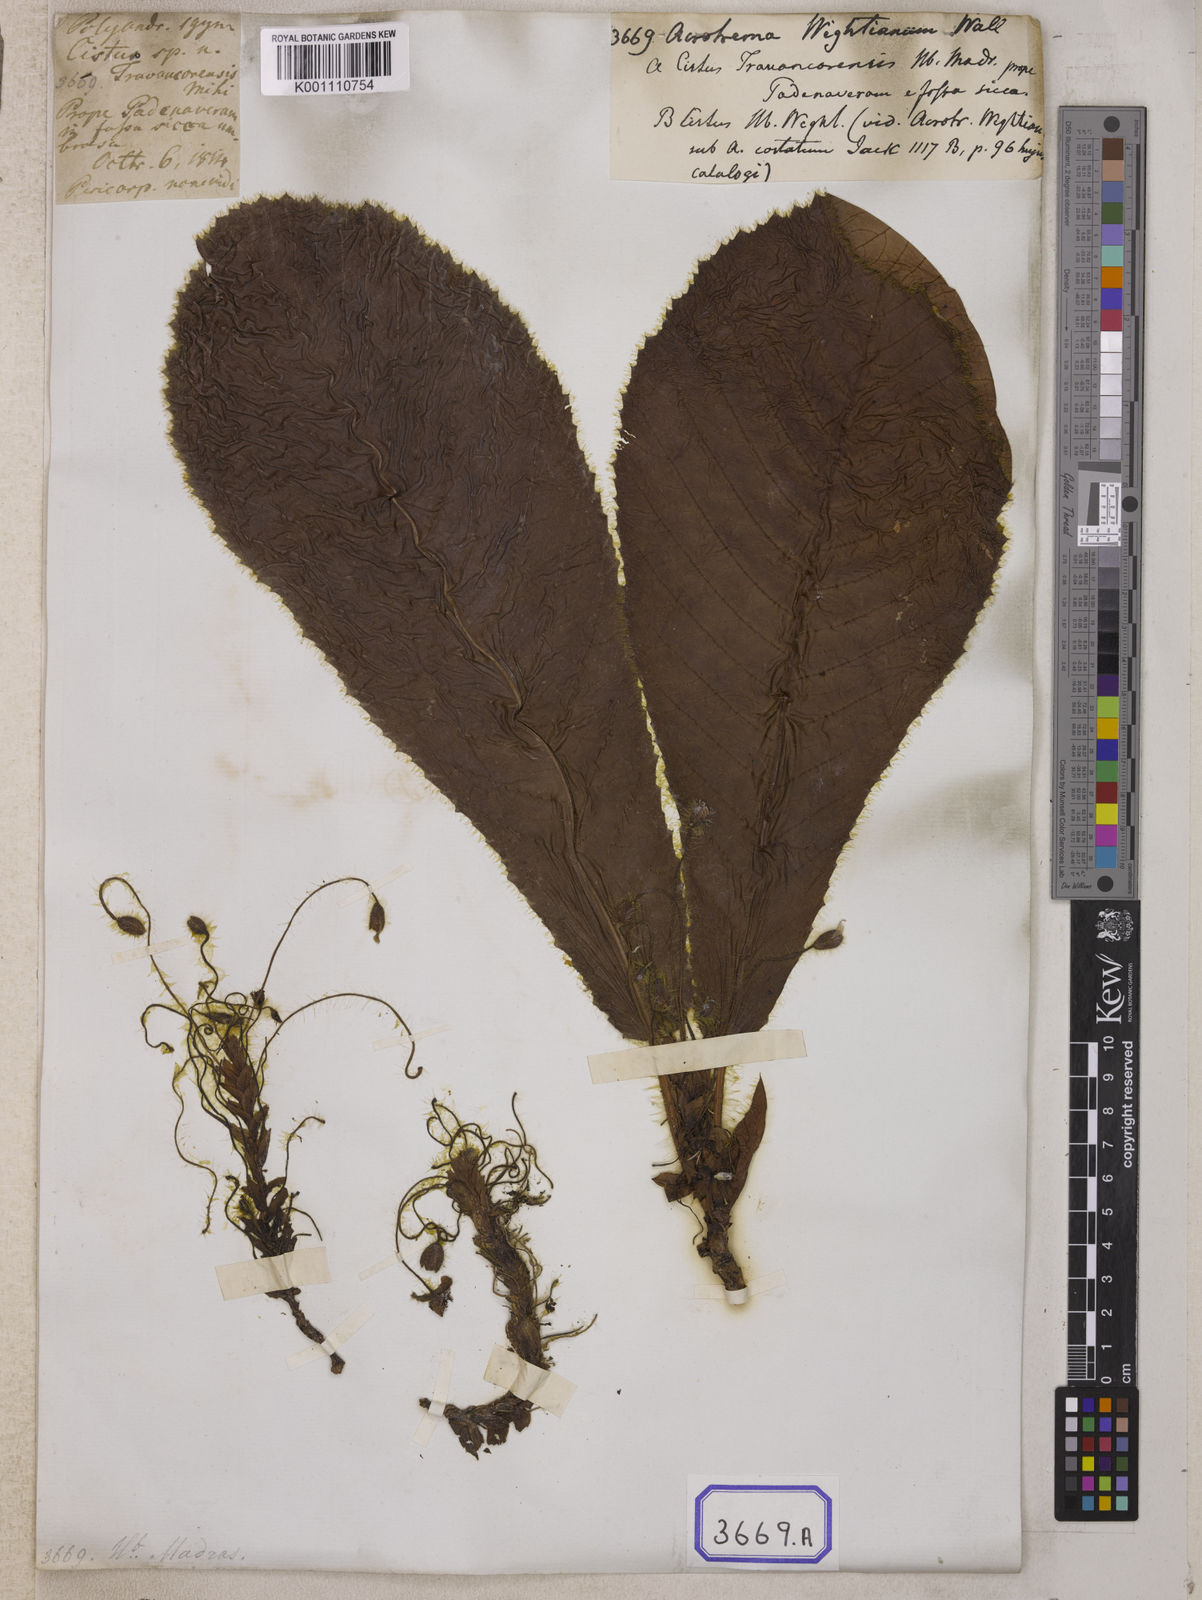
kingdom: Plantae
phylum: Tracheophyta
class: Magnoliopsida
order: Dilleniales
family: Dilleniaceae
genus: Acrotrema
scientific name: Acrotrema wightianum
